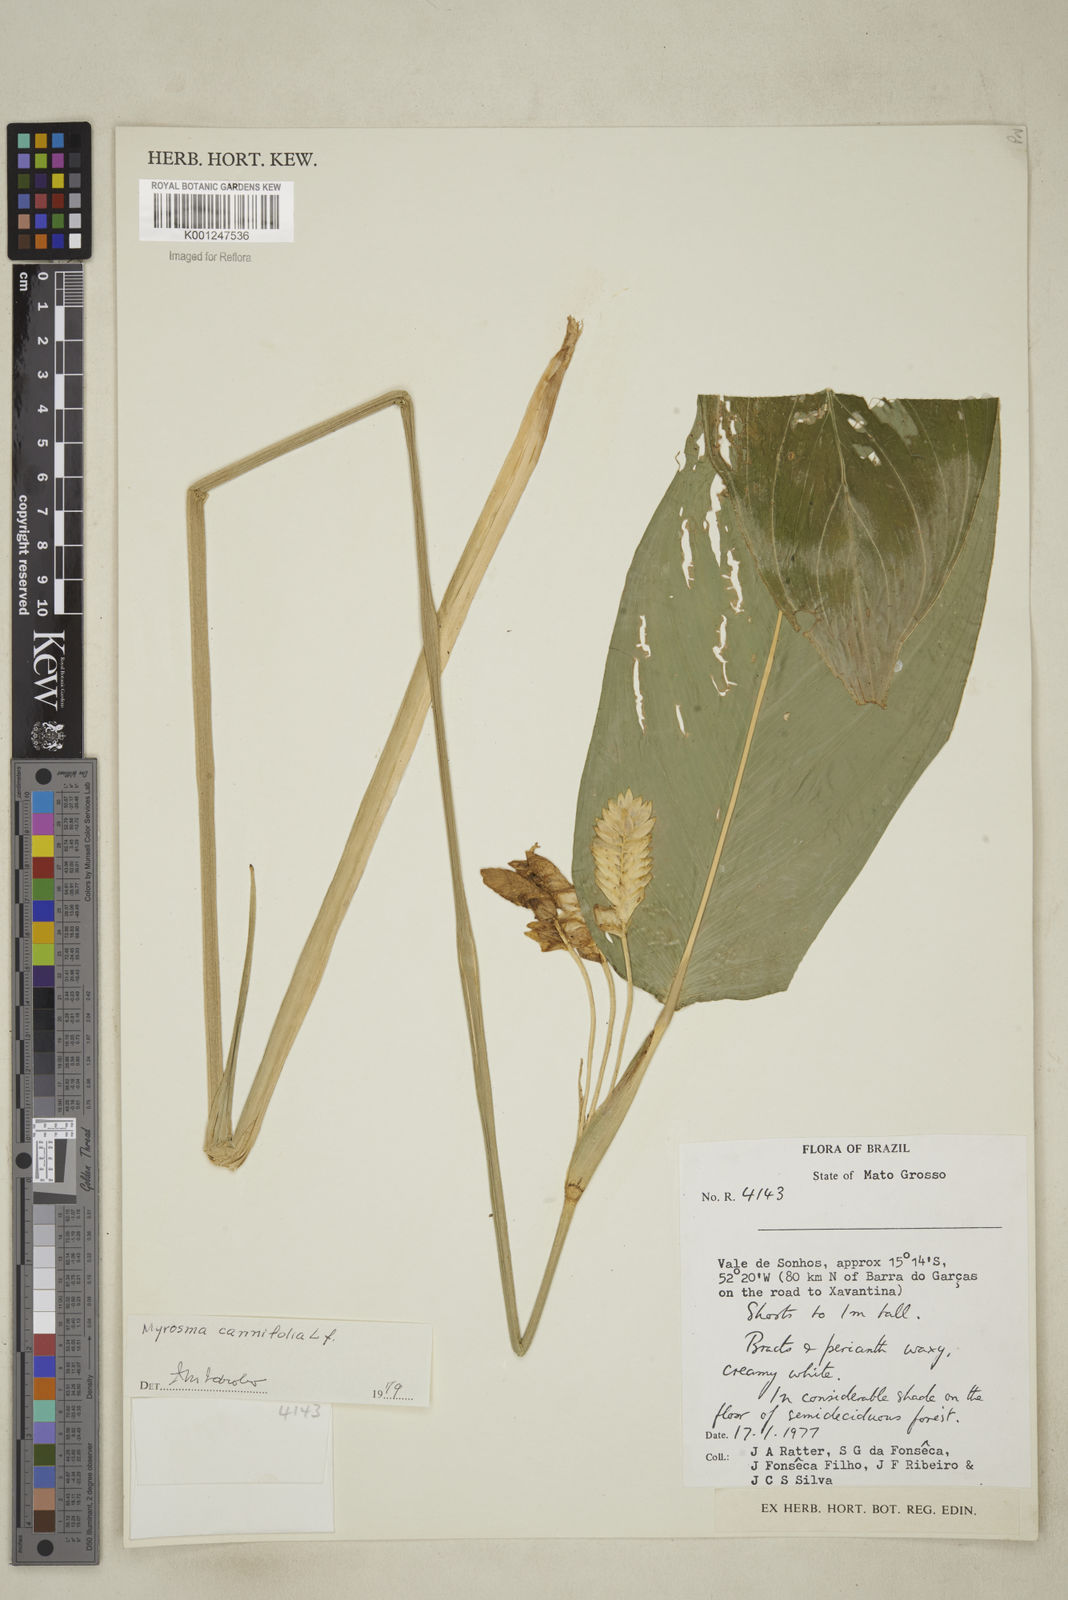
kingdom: Plantae
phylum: Tracheophyta
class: Liliopsida
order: Zingiberales
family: Marantaceae
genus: Myrosma
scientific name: Myrosma cannifolia
